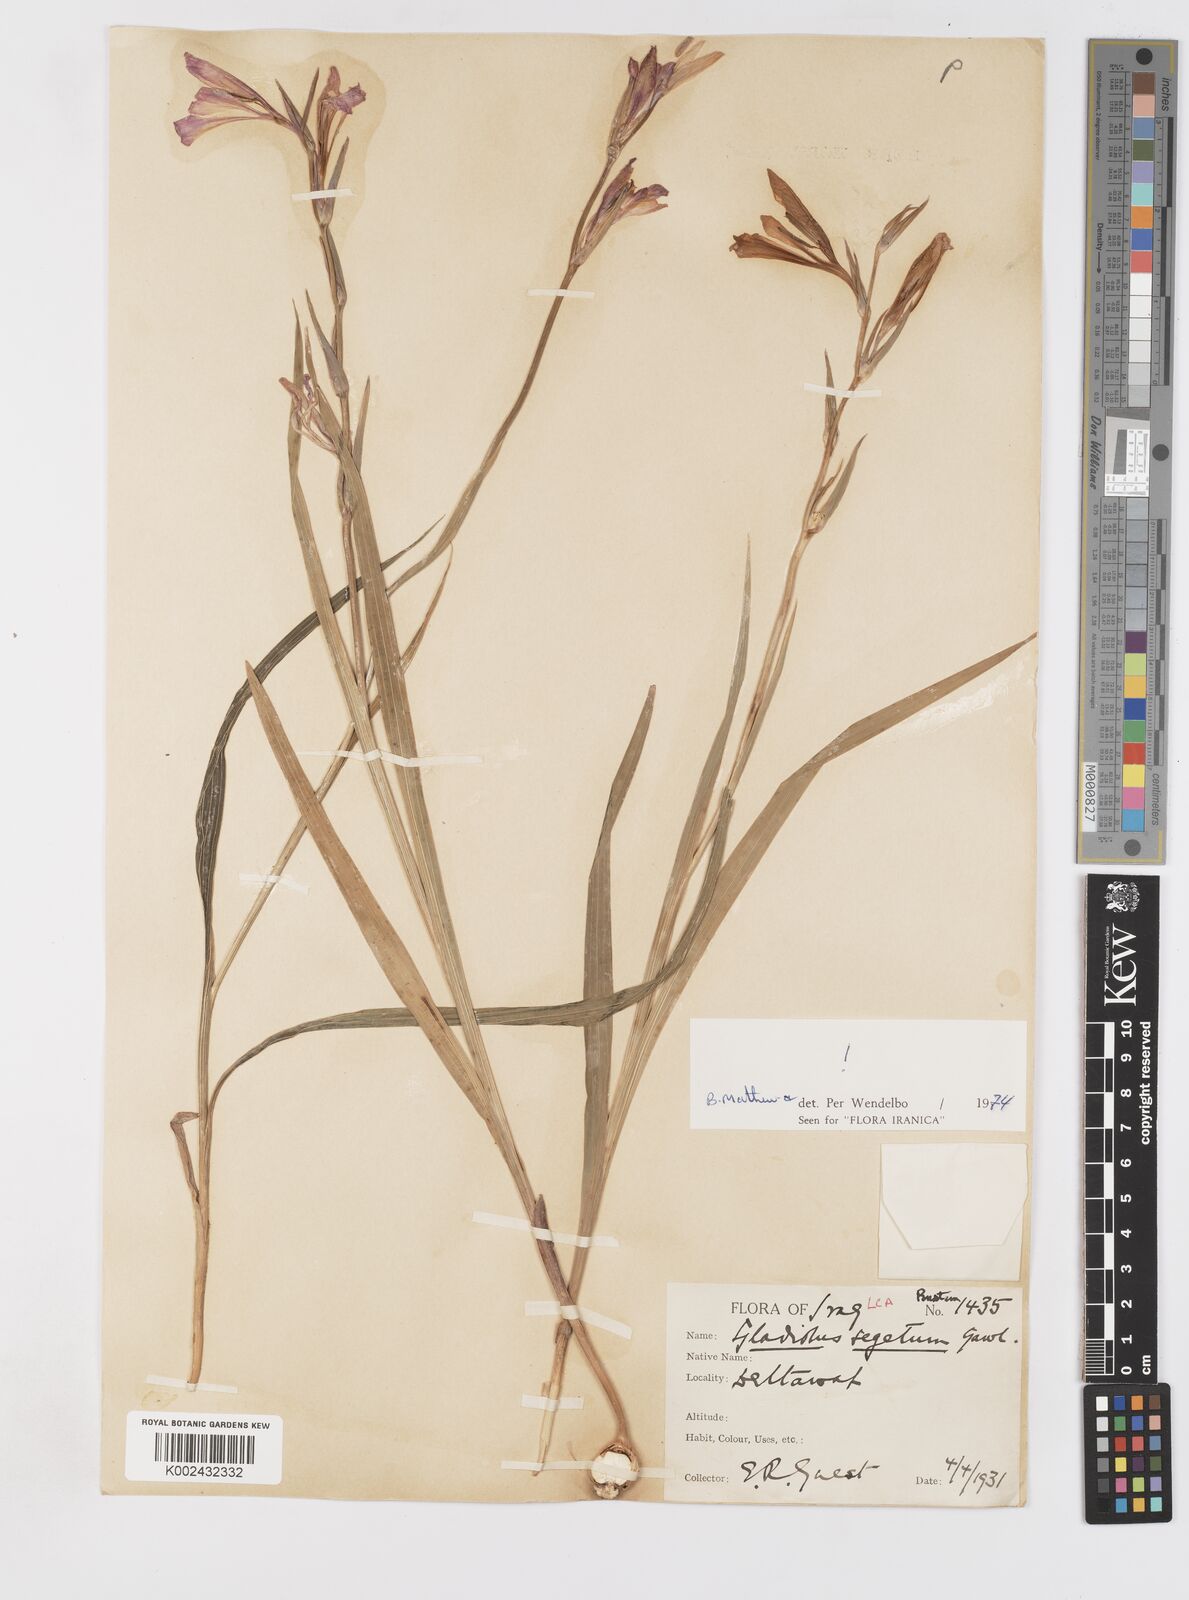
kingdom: Plantae
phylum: Tracheophyta
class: Liliopsida
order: Asparagales
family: Iridaceae
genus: Gladiolus
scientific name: Gladiolus italicus
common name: Field gladiolus
